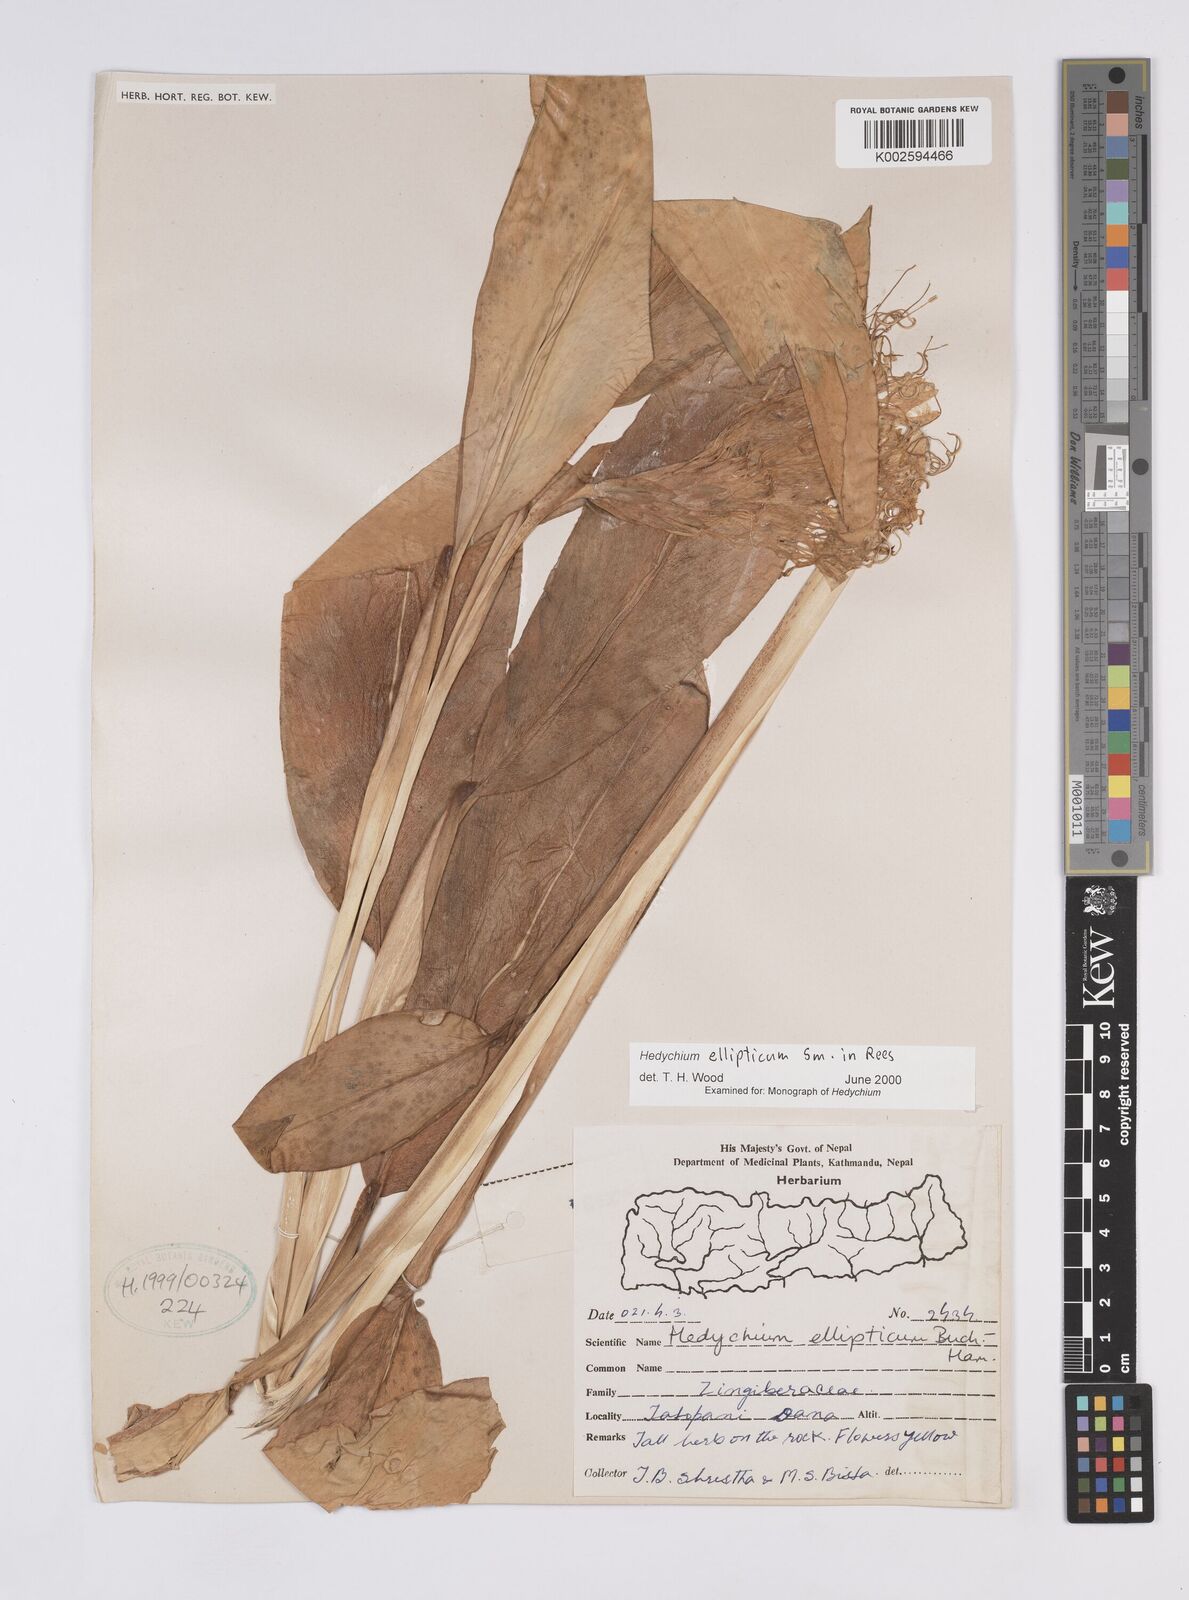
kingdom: Plantae
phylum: Tracheophyta
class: Liliopsida
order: Zingiberales
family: Zingiberaceae
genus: Hedychium
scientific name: Hedychium ellipticum
